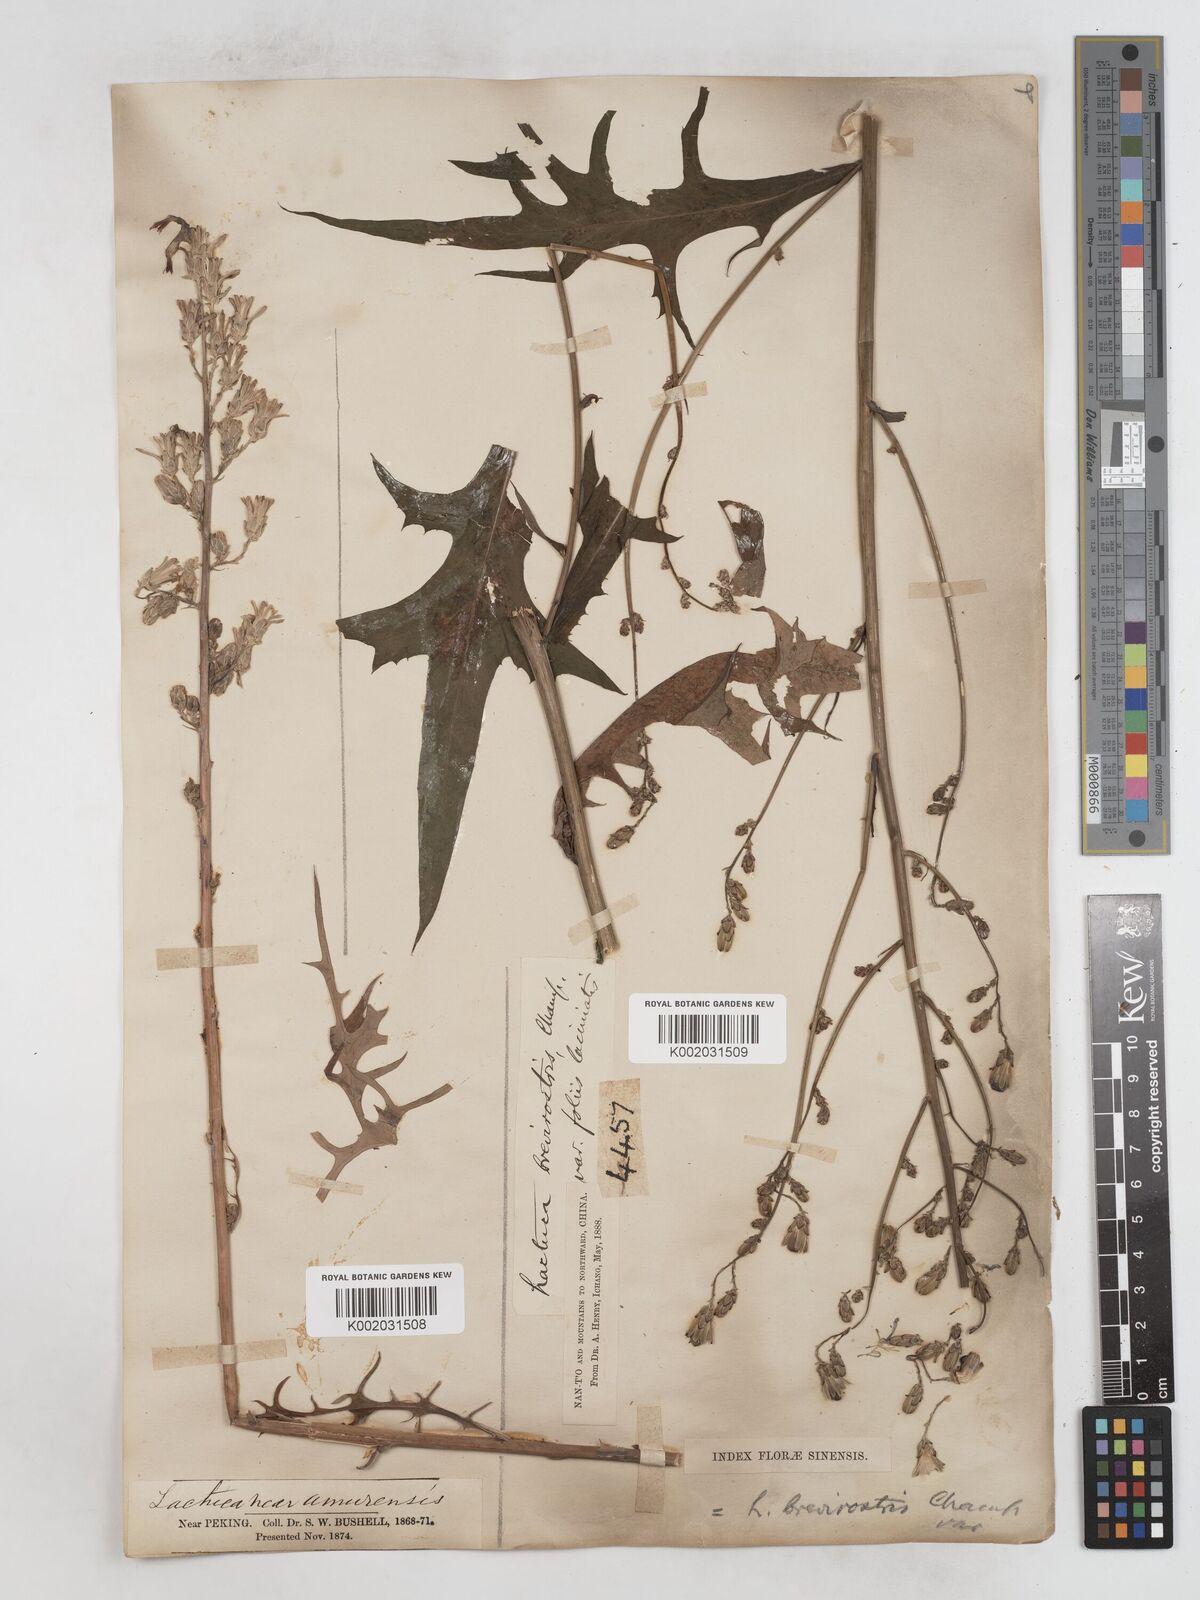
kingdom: Plantae
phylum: Tracheophyta
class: Magnoliopsida
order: Asterales
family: Asteraceae
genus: Lactuca
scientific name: Lactuca
